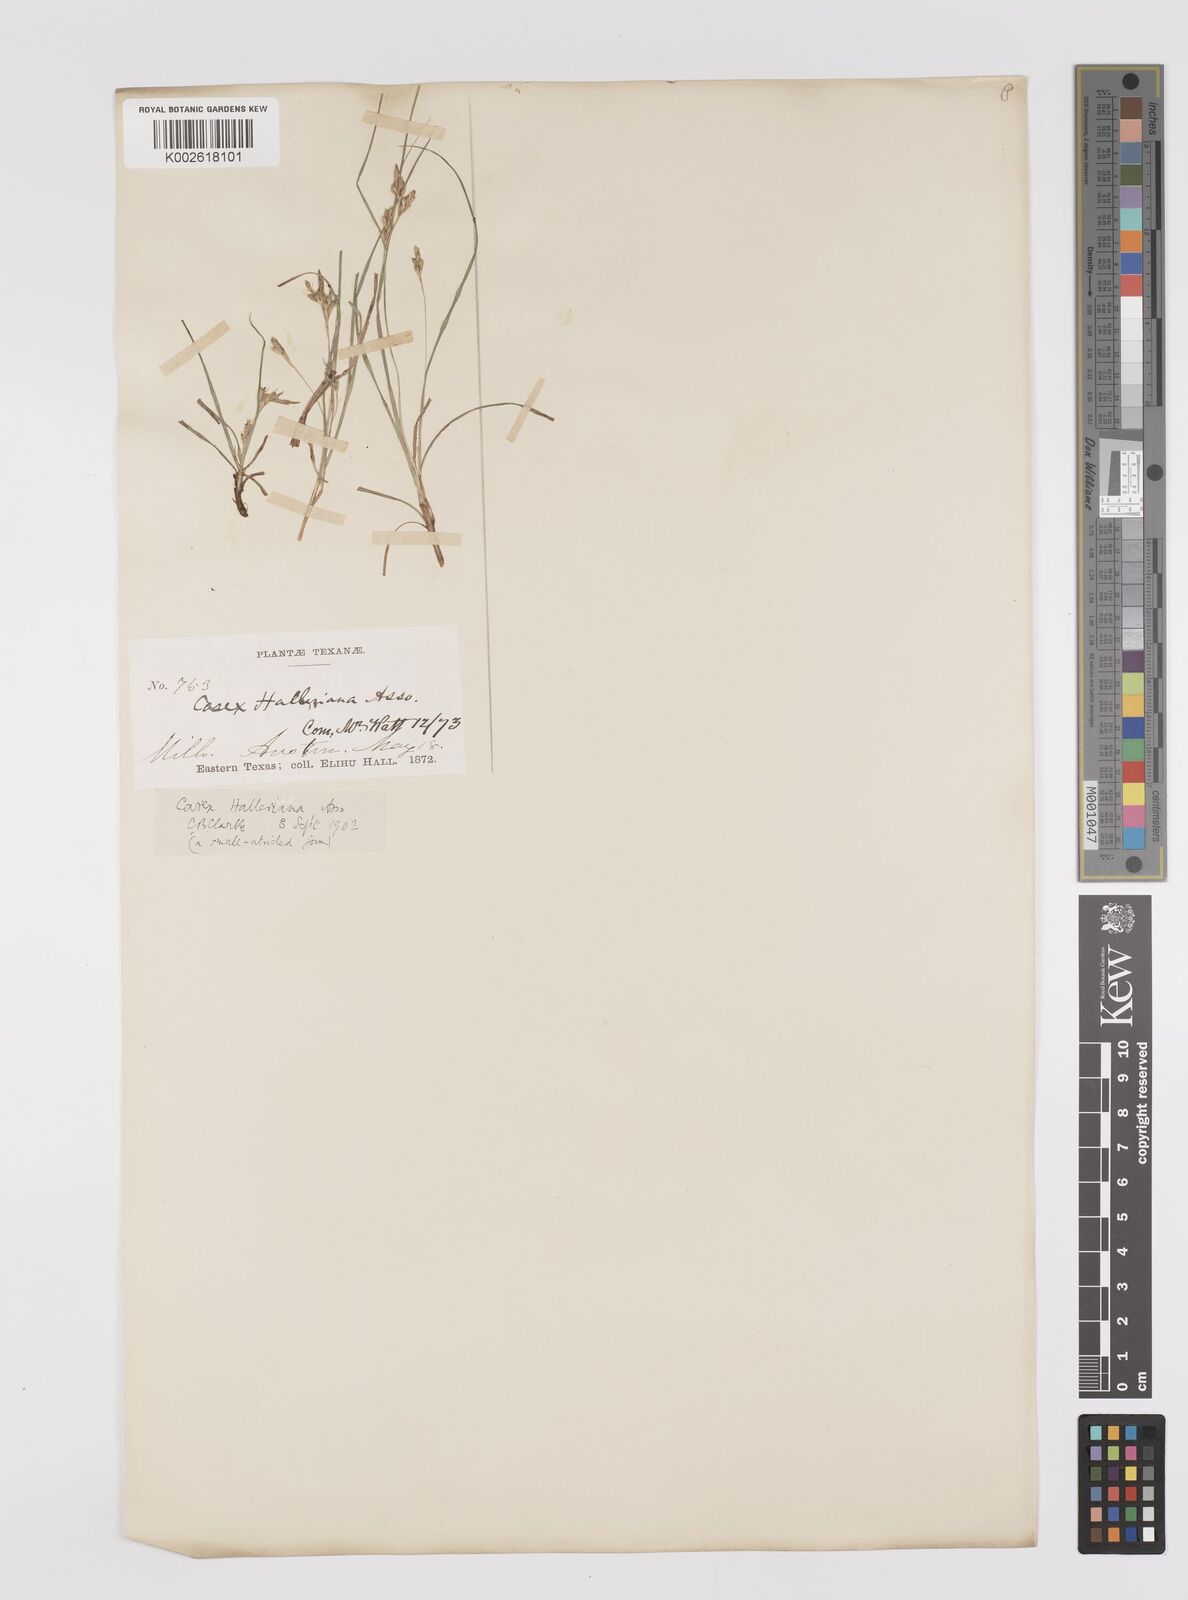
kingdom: Plantae
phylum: Tracheophyta
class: Liliopsida
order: Poales
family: Cyperaceae
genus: Carex
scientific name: Carex planostachys
